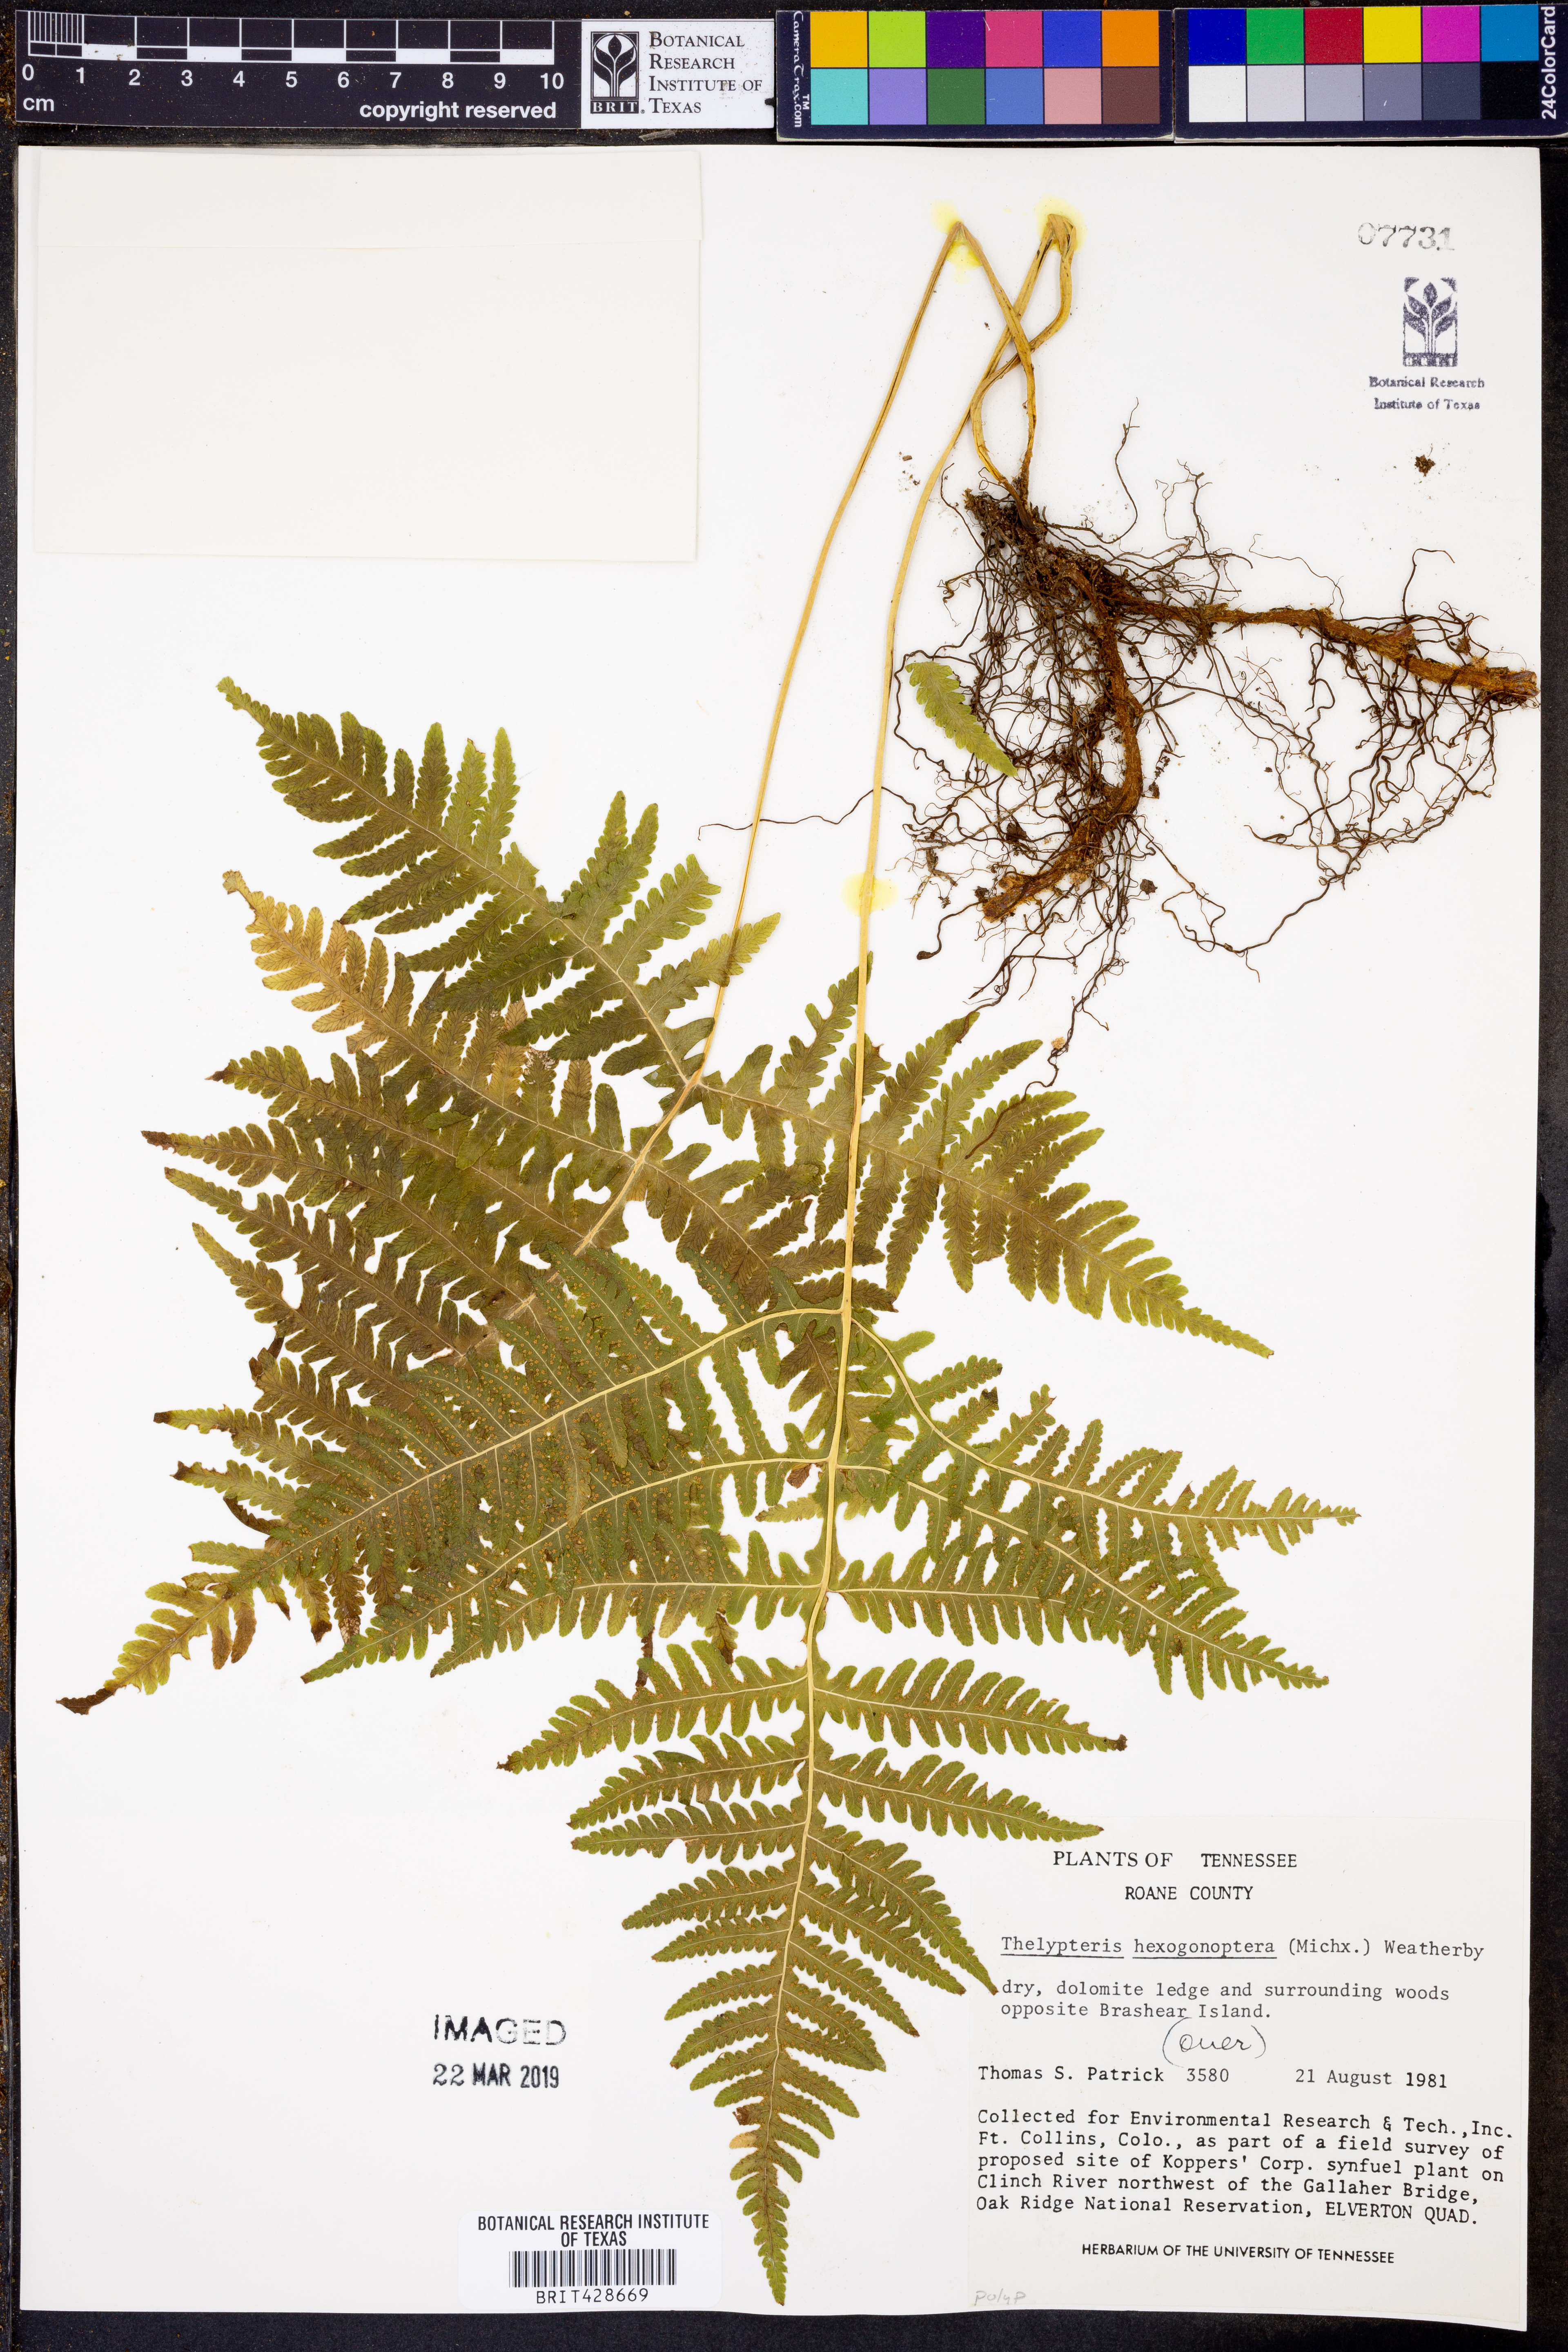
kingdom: Plantae
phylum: Tracheophyta
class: Polypodiopsida
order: Polypodiales
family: Thelypteridaceae
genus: Phegopteris
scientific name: Phegopteris hexagonoptera
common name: Broad beech fern
